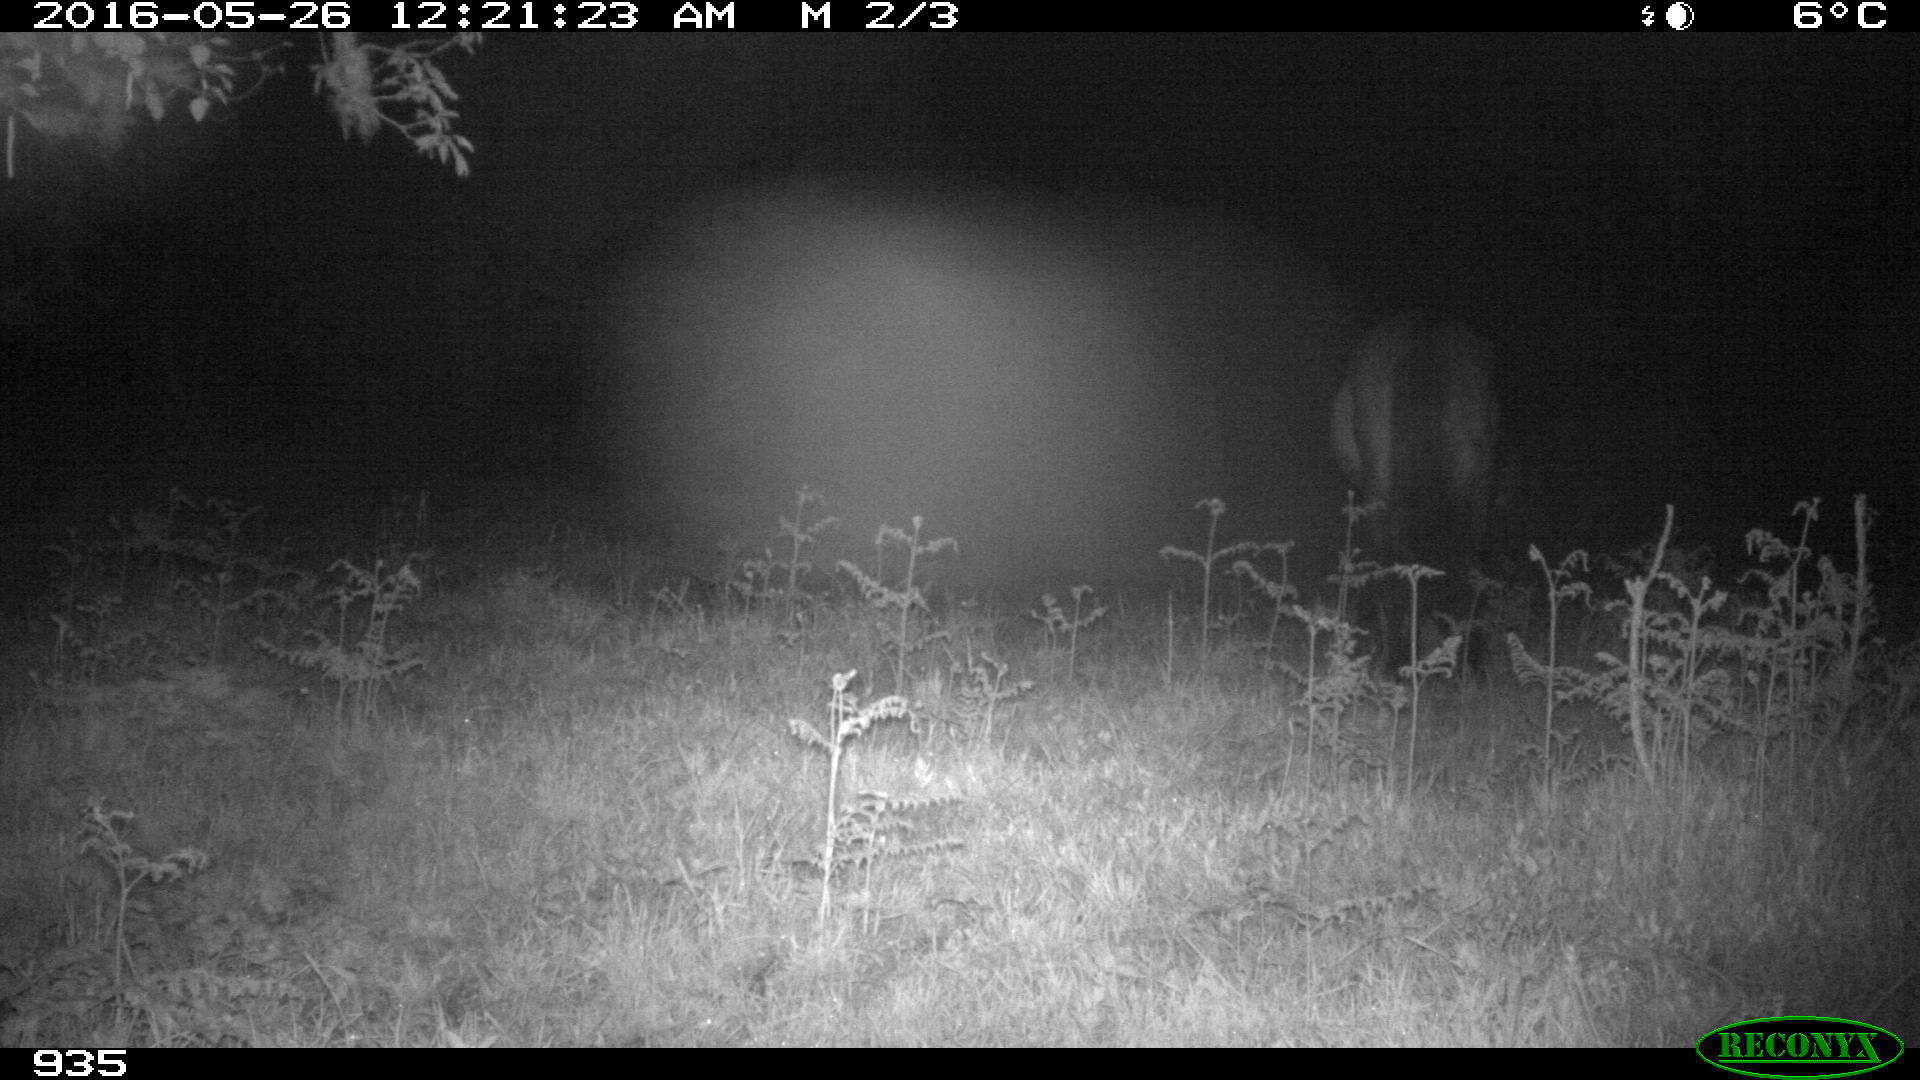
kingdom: Animalia
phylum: Chordata
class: Mammalia
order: Perissodactyla
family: Equidae
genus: Equus
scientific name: Equus caballus
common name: Horse
